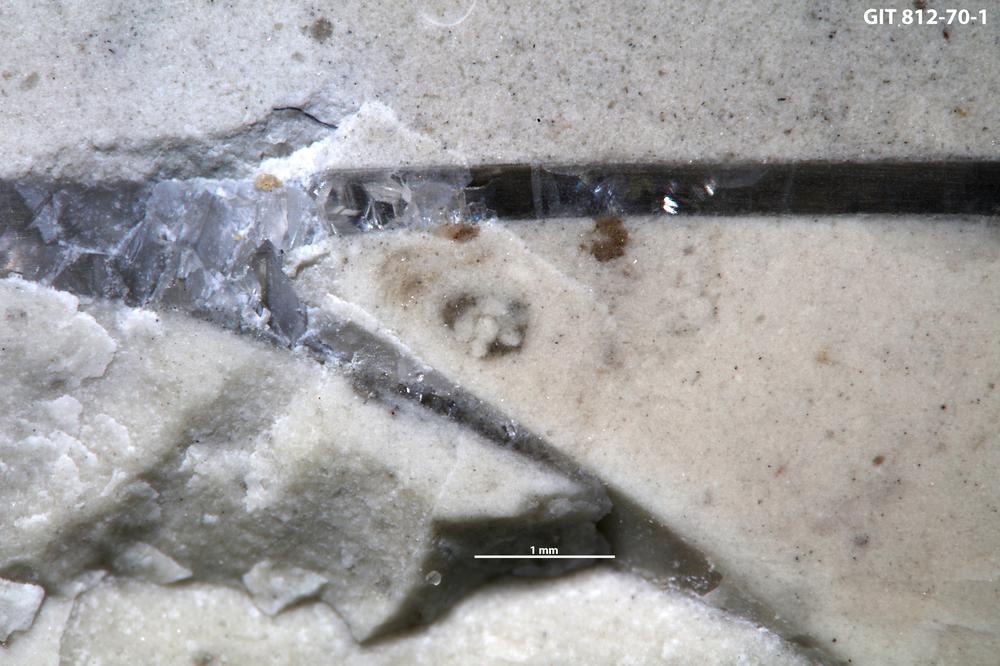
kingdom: Animalia
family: Coprulidae
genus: Coprulus
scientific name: Coprulus
